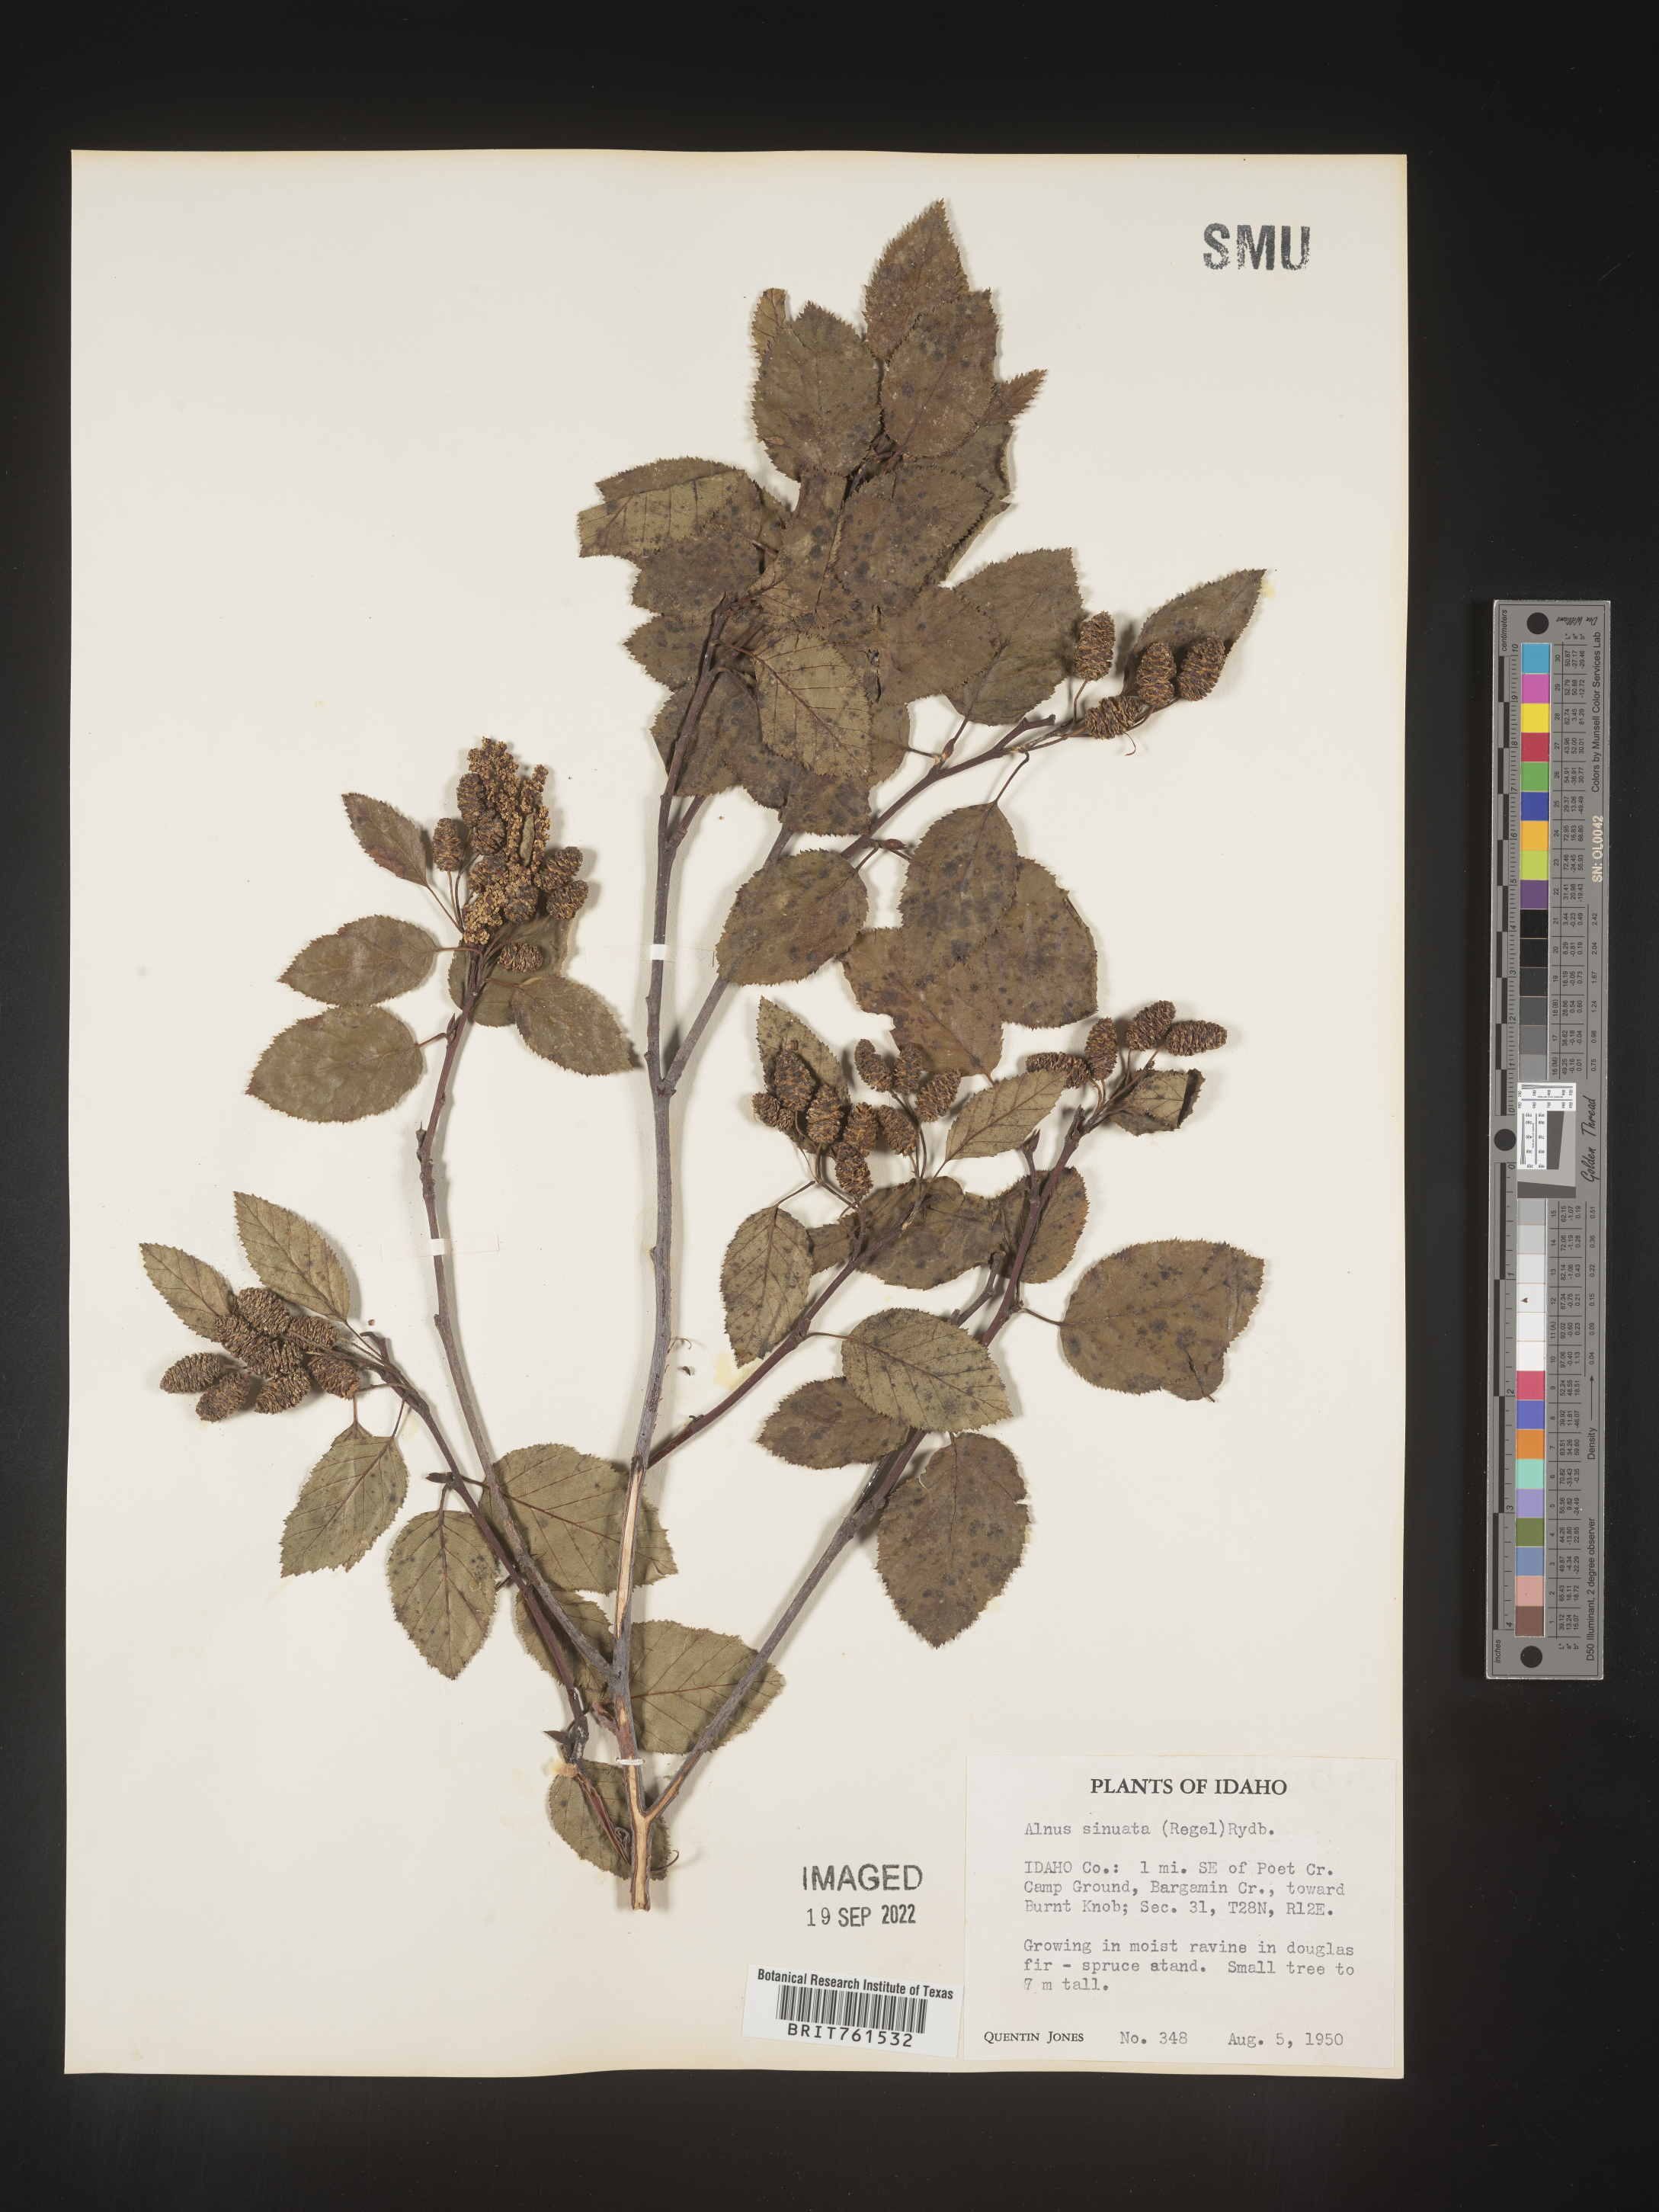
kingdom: Plantae
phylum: Tracheophyta
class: Magnoliopsida
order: Fagales
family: Betulaceae
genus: Alnus
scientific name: Alnus alnobetula
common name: Green alder
